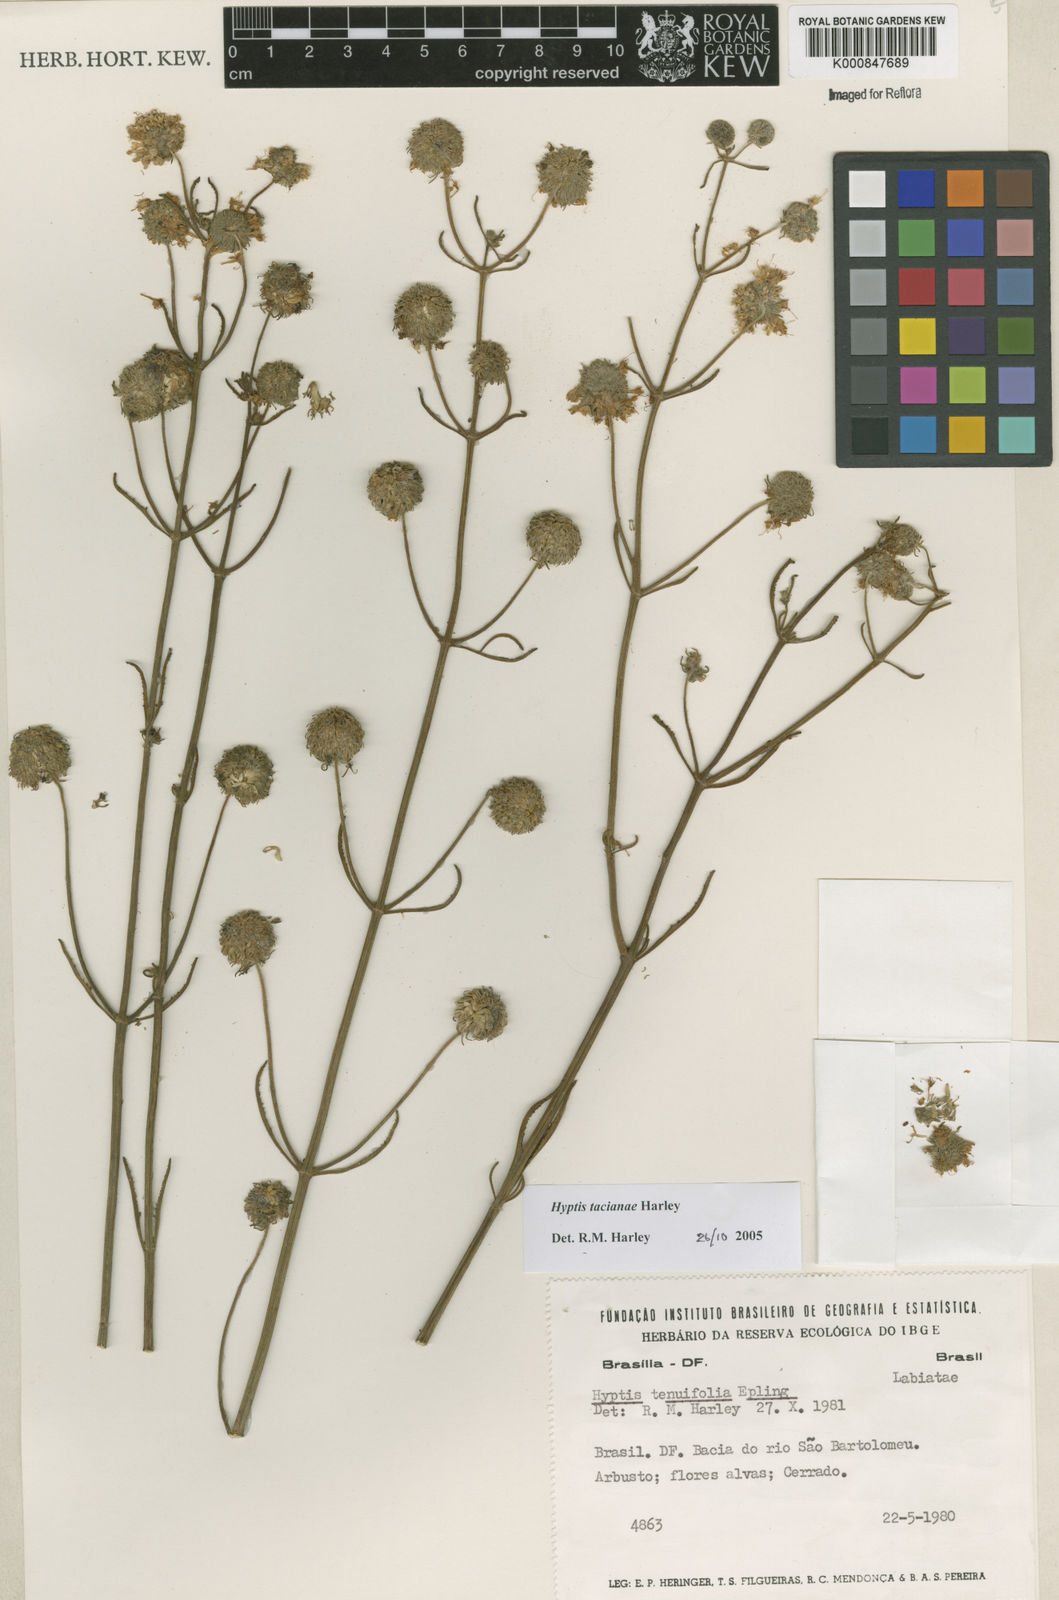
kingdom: Plantae
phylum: Tracheophyta
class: Magnoliopsida
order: Lamiales
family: Lamiaceae
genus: Cyanocephalus
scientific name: Cyanocephalus tacianae
